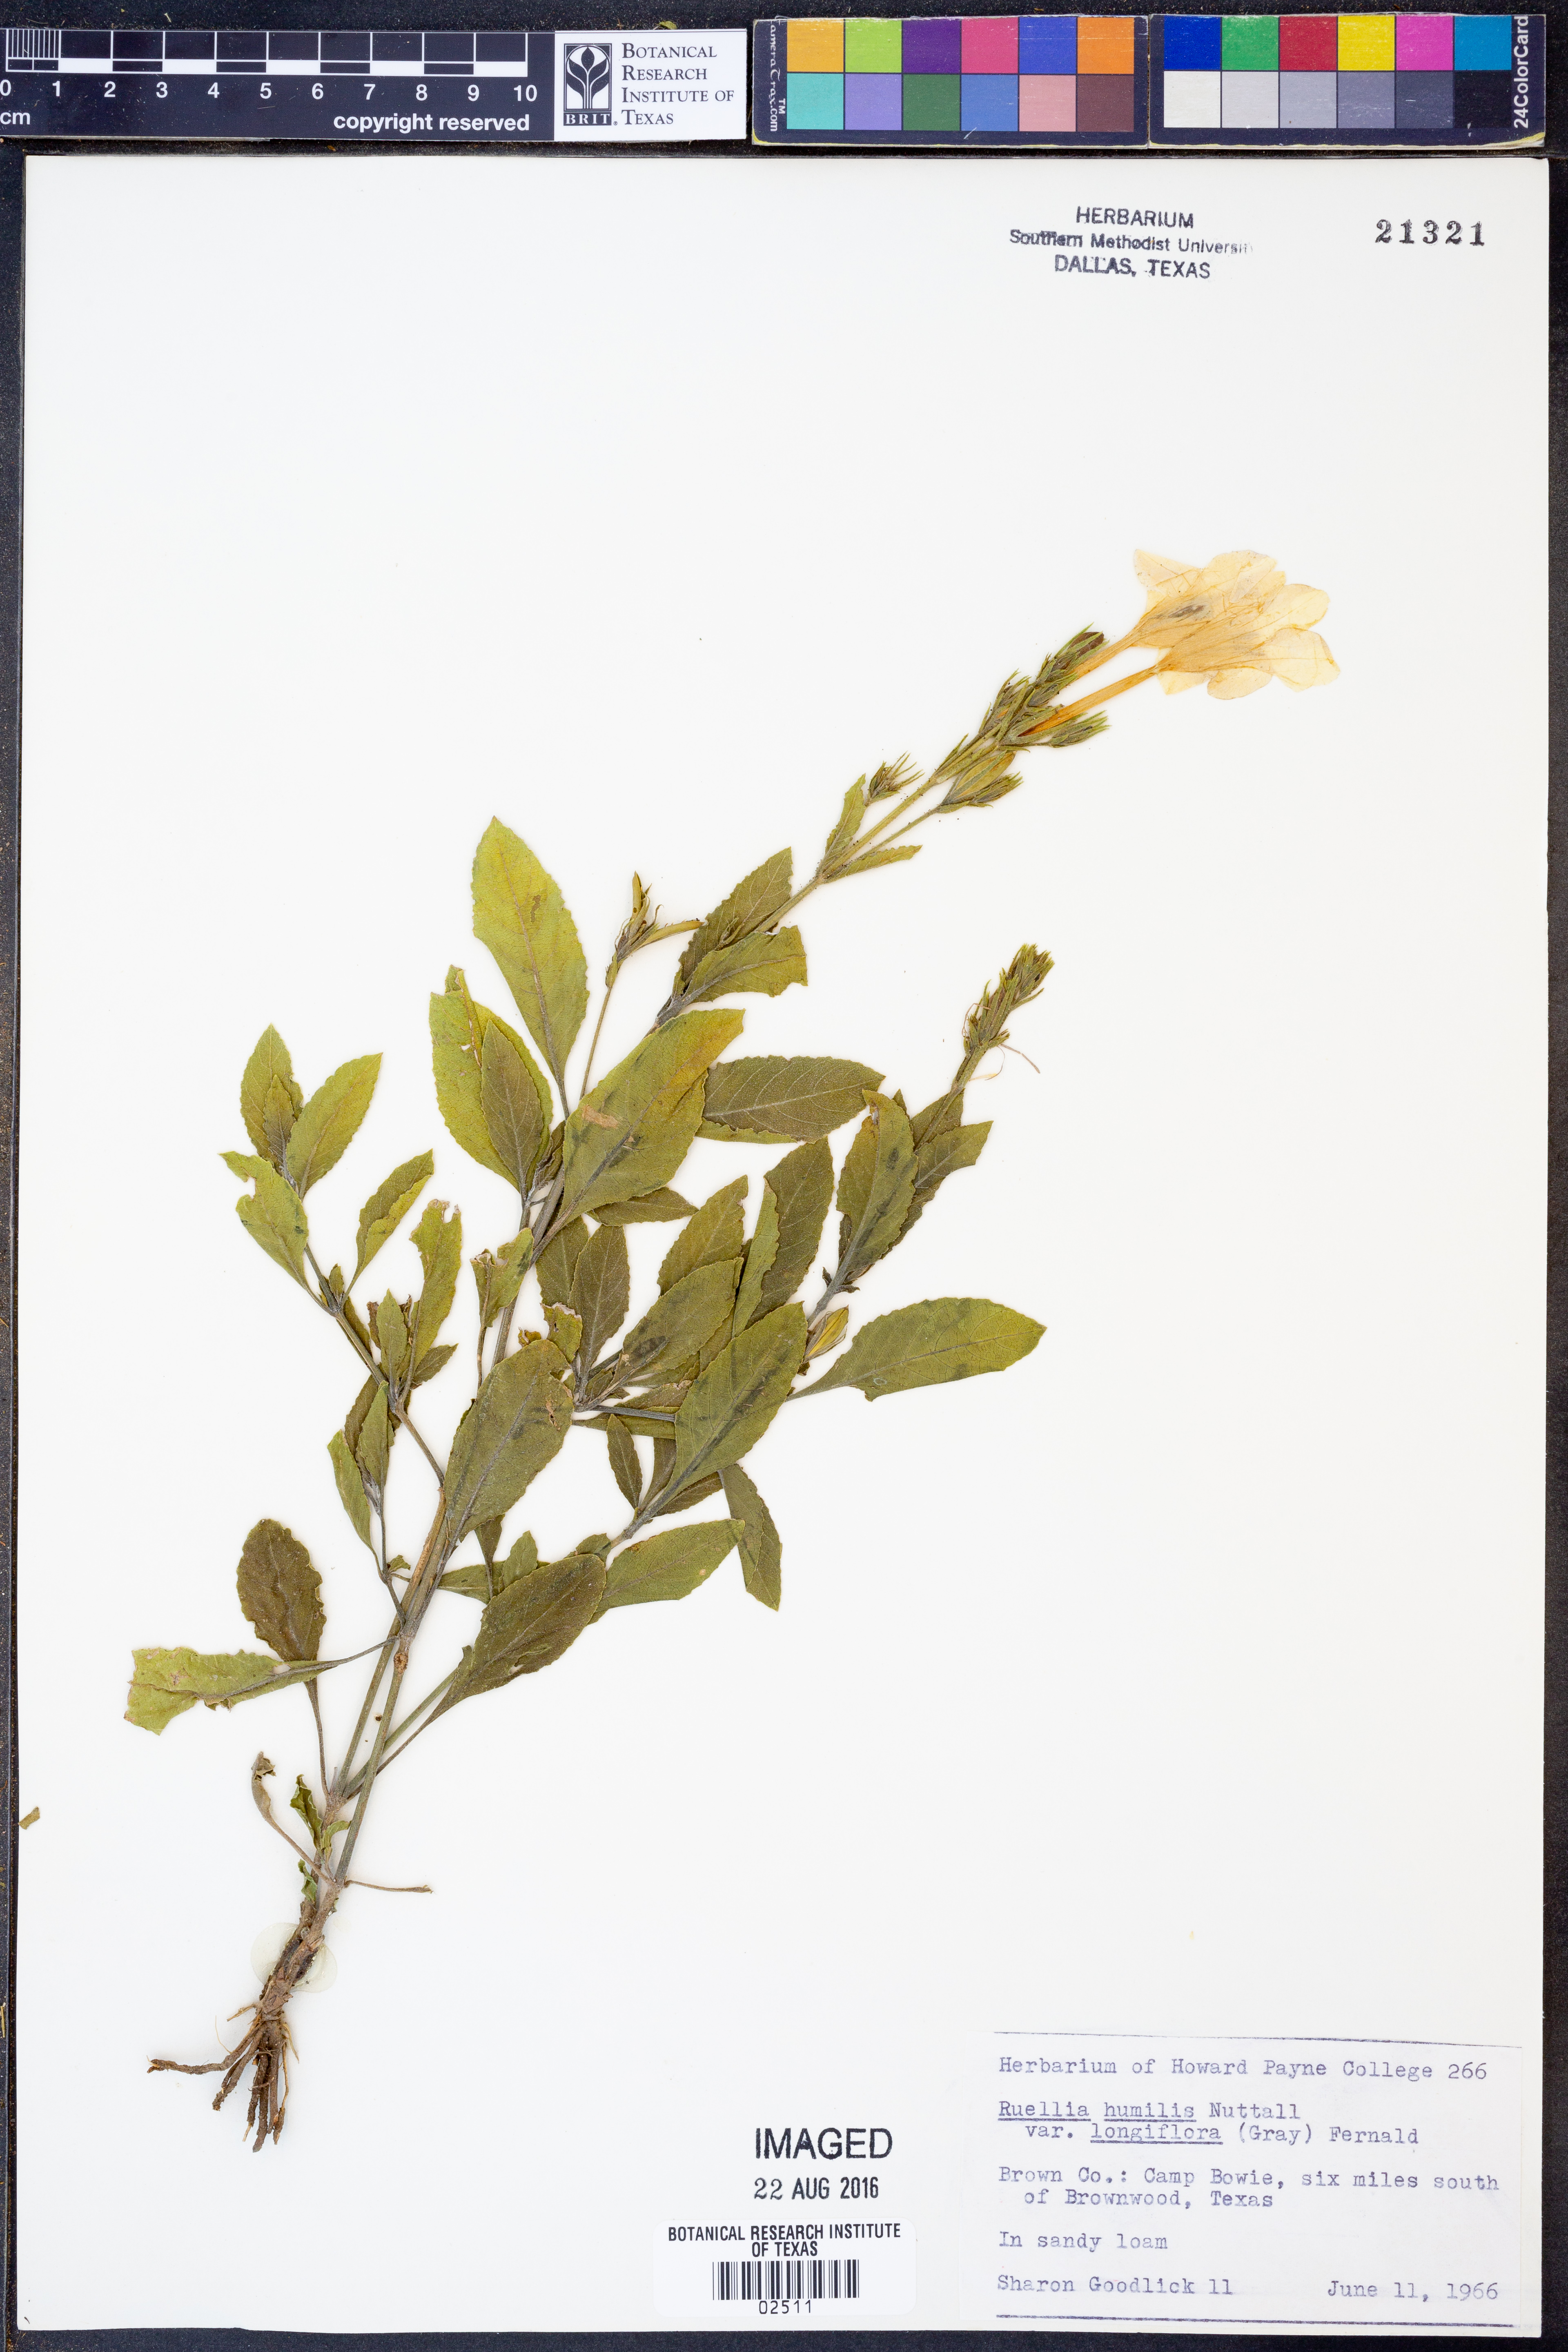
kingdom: Plantae
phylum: Tracheophyta
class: Magnoliopsida
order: Lamiales
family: Acanthaceae
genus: Ruellia
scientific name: Ruellia humilis
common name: Fringe-leaf ruellia
